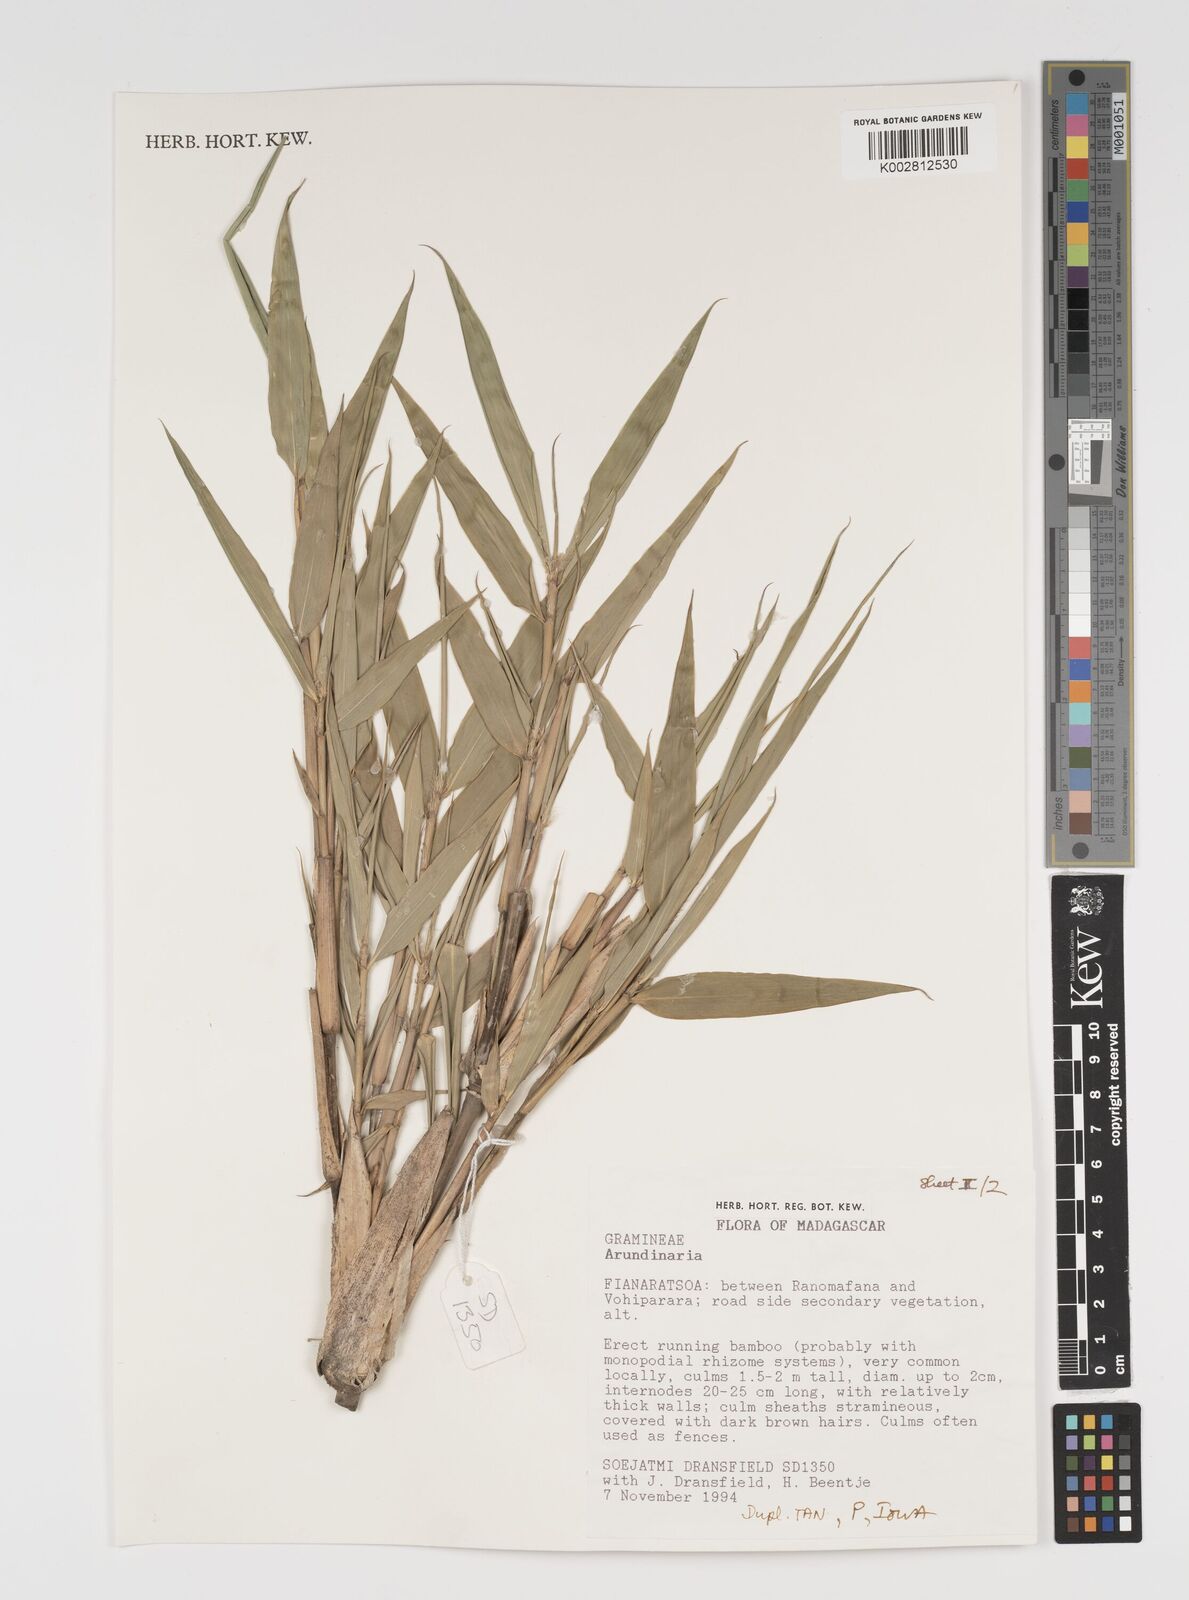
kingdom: Plantae
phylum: Tracheophyta
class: Liliopsida
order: Poales
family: Poaceae
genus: Arundinaria
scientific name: Arundinaria
